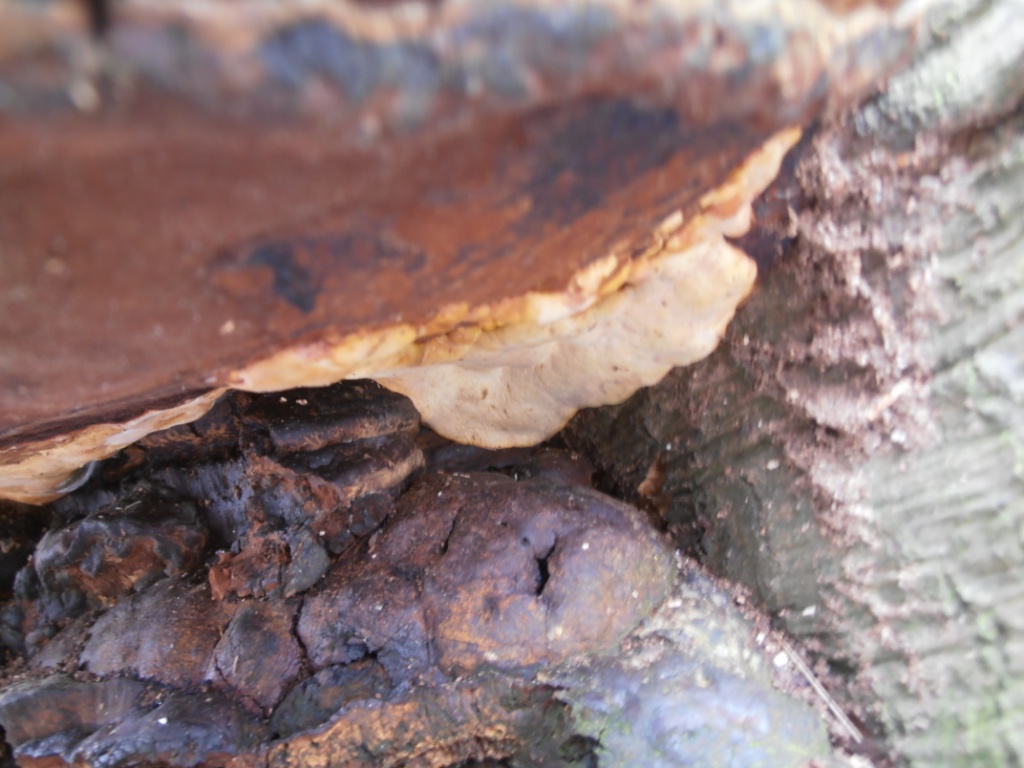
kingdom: Fungi
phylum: Basidiomycota
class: Agaricomycetes
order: Polyporales
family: Polyporaceae
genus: Ganoderma
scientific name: Ganoderma pfeifferi
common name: kobberrød lakporesvamp
